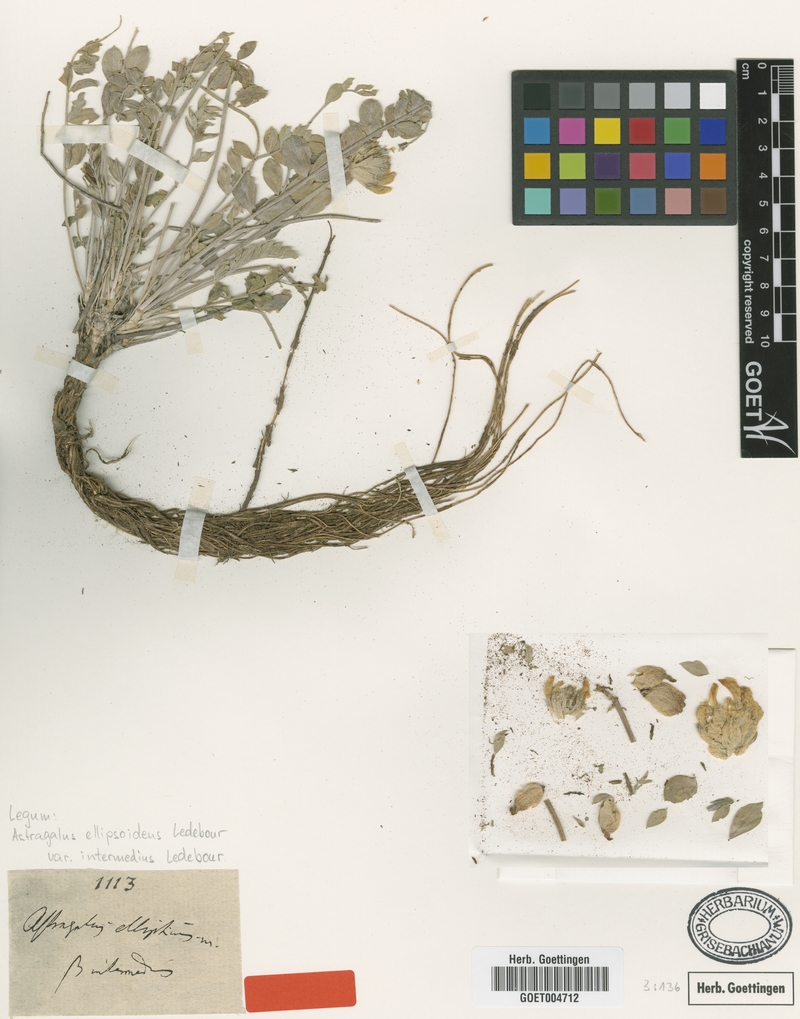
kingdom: Plantae
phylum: Tracheophyta
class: Magnoliopsida
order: Fabales
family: Fabaceae
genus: Astragalus
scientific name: Astragalus petropylensis
